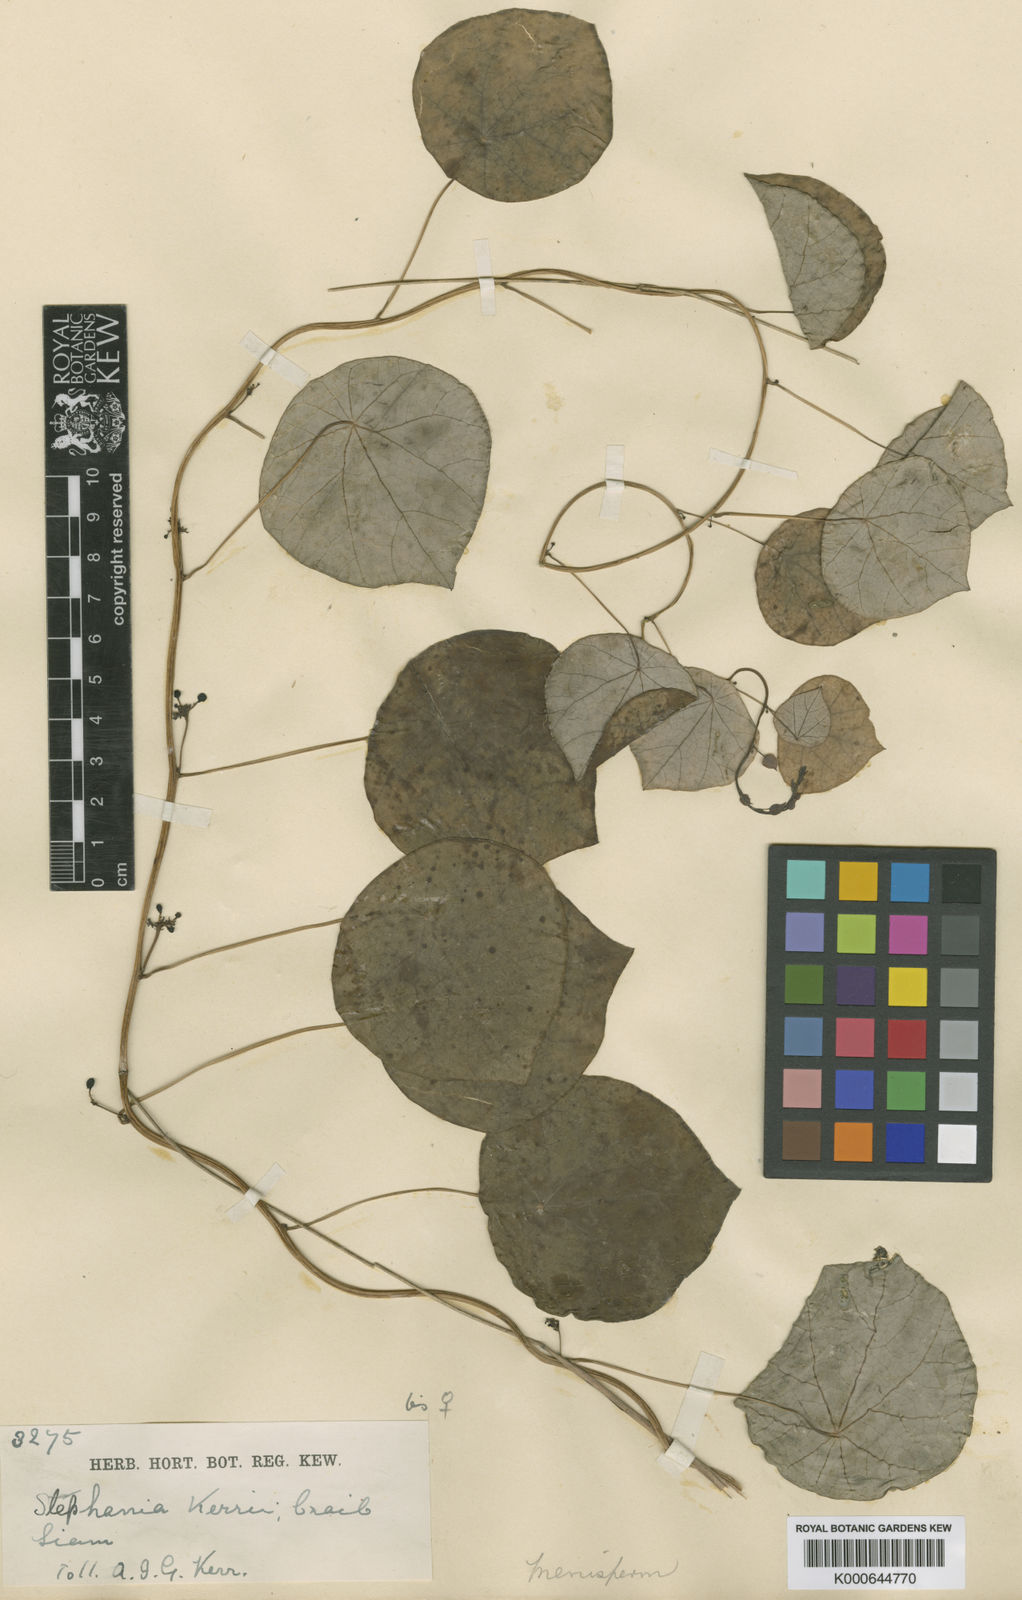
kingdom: Plantae
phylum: Tracheophyta
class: Magnoliopsida
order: Ranunculales
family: Menispermaceae
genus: Stephania
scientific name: Stephania oblata
